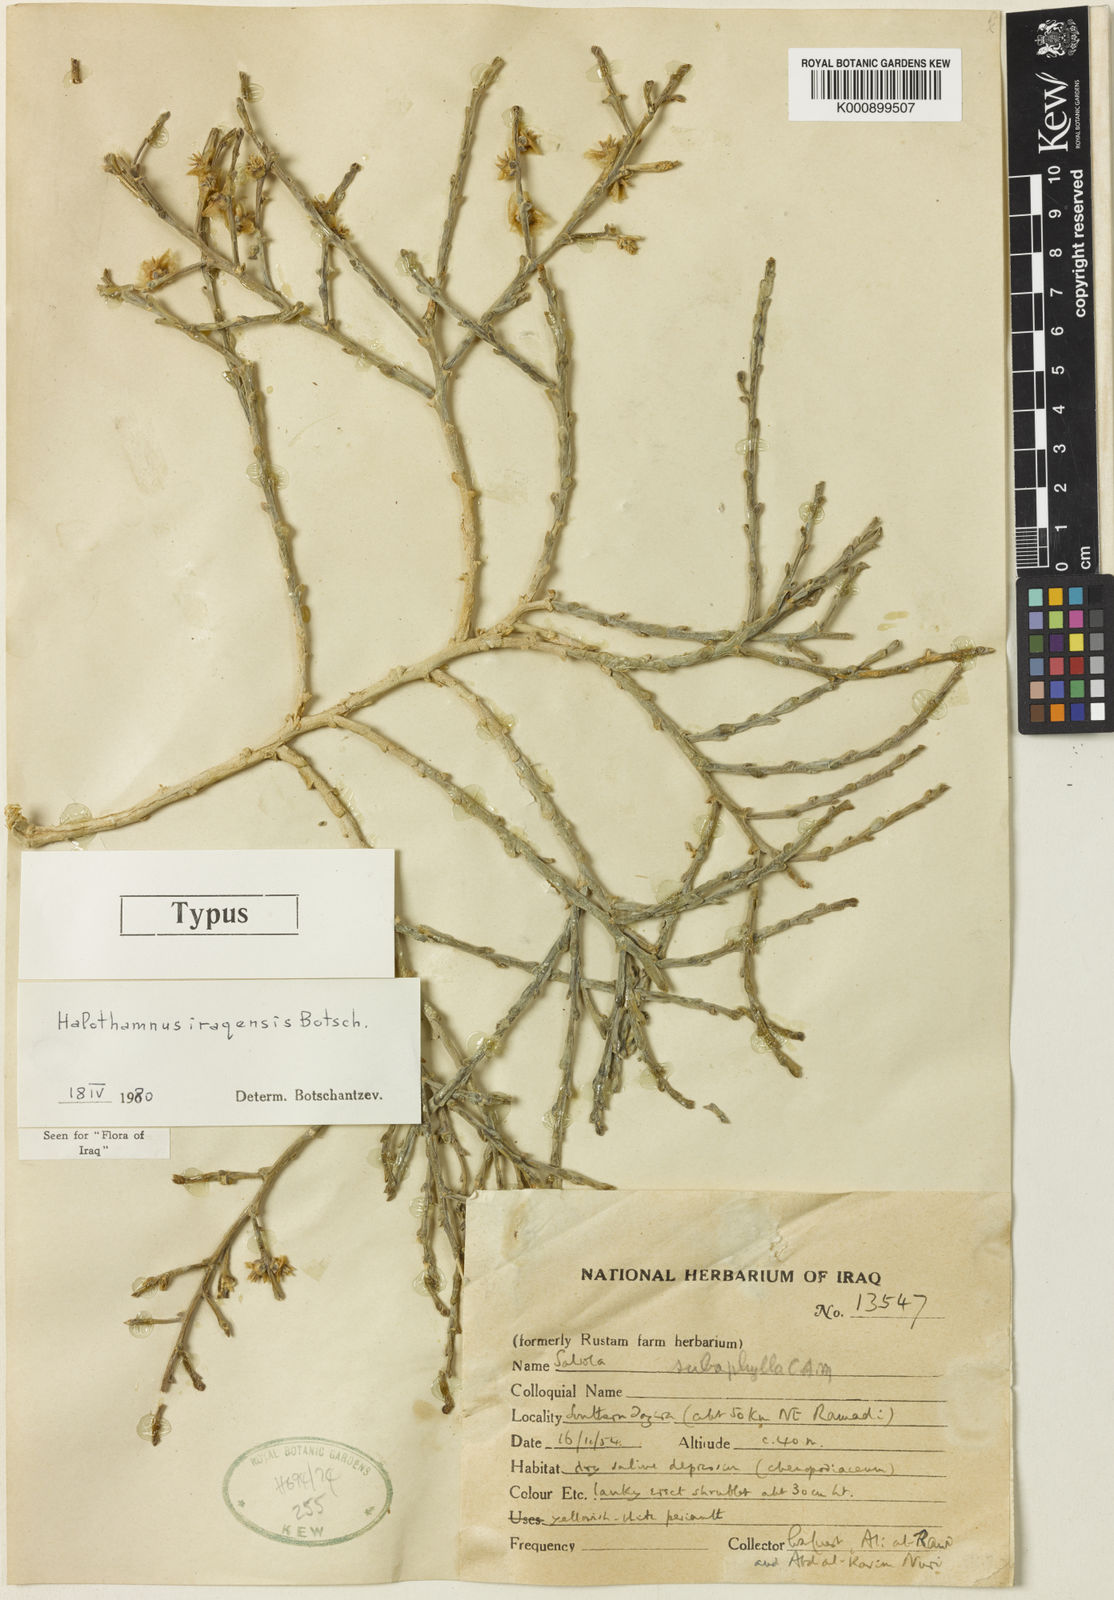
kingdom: Plantae
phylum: Tracheophyta
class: Magnoliopsida
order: Caryophyllales
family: Amaranthaceae
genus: Halothamnus
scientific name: Halothamnus iraqensis
